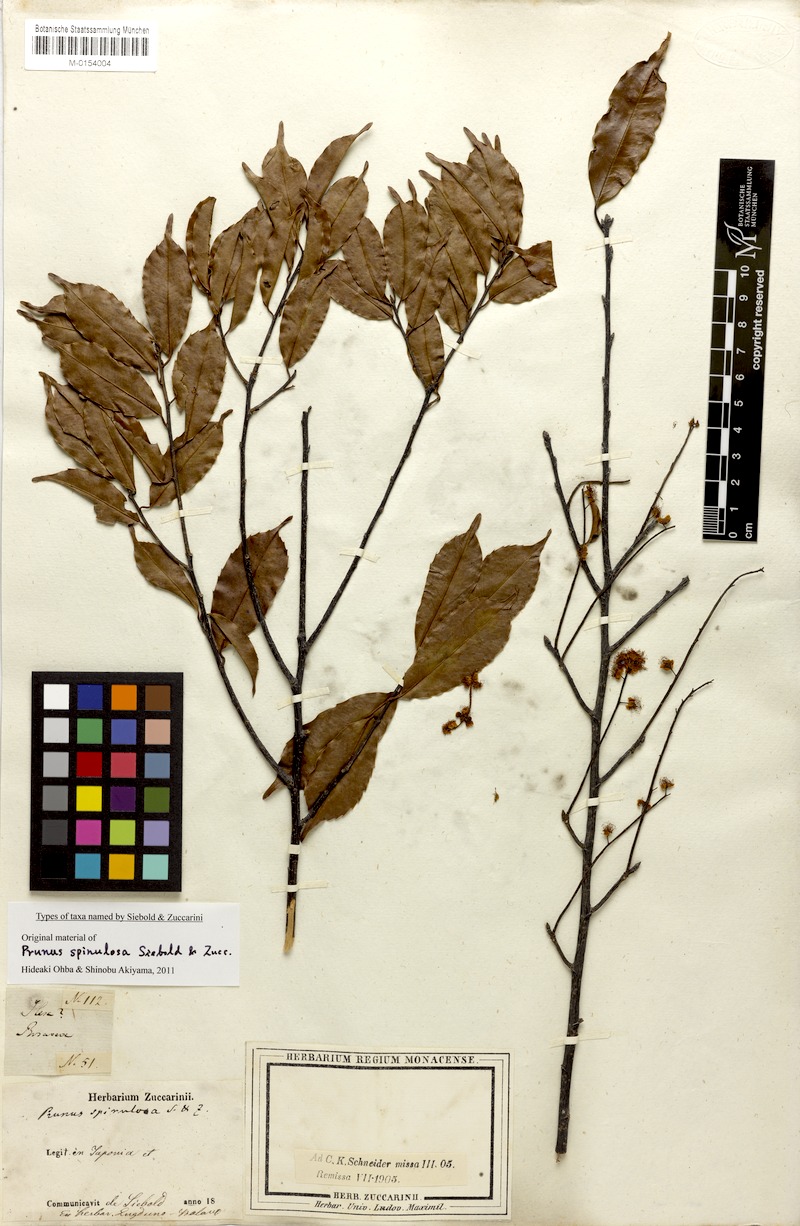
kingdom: Plantae
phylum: Tracheophyta
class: Magnoliopsida
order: Rosales
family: Rosaceae
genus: Prunus
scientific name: Prunus spinulosa
